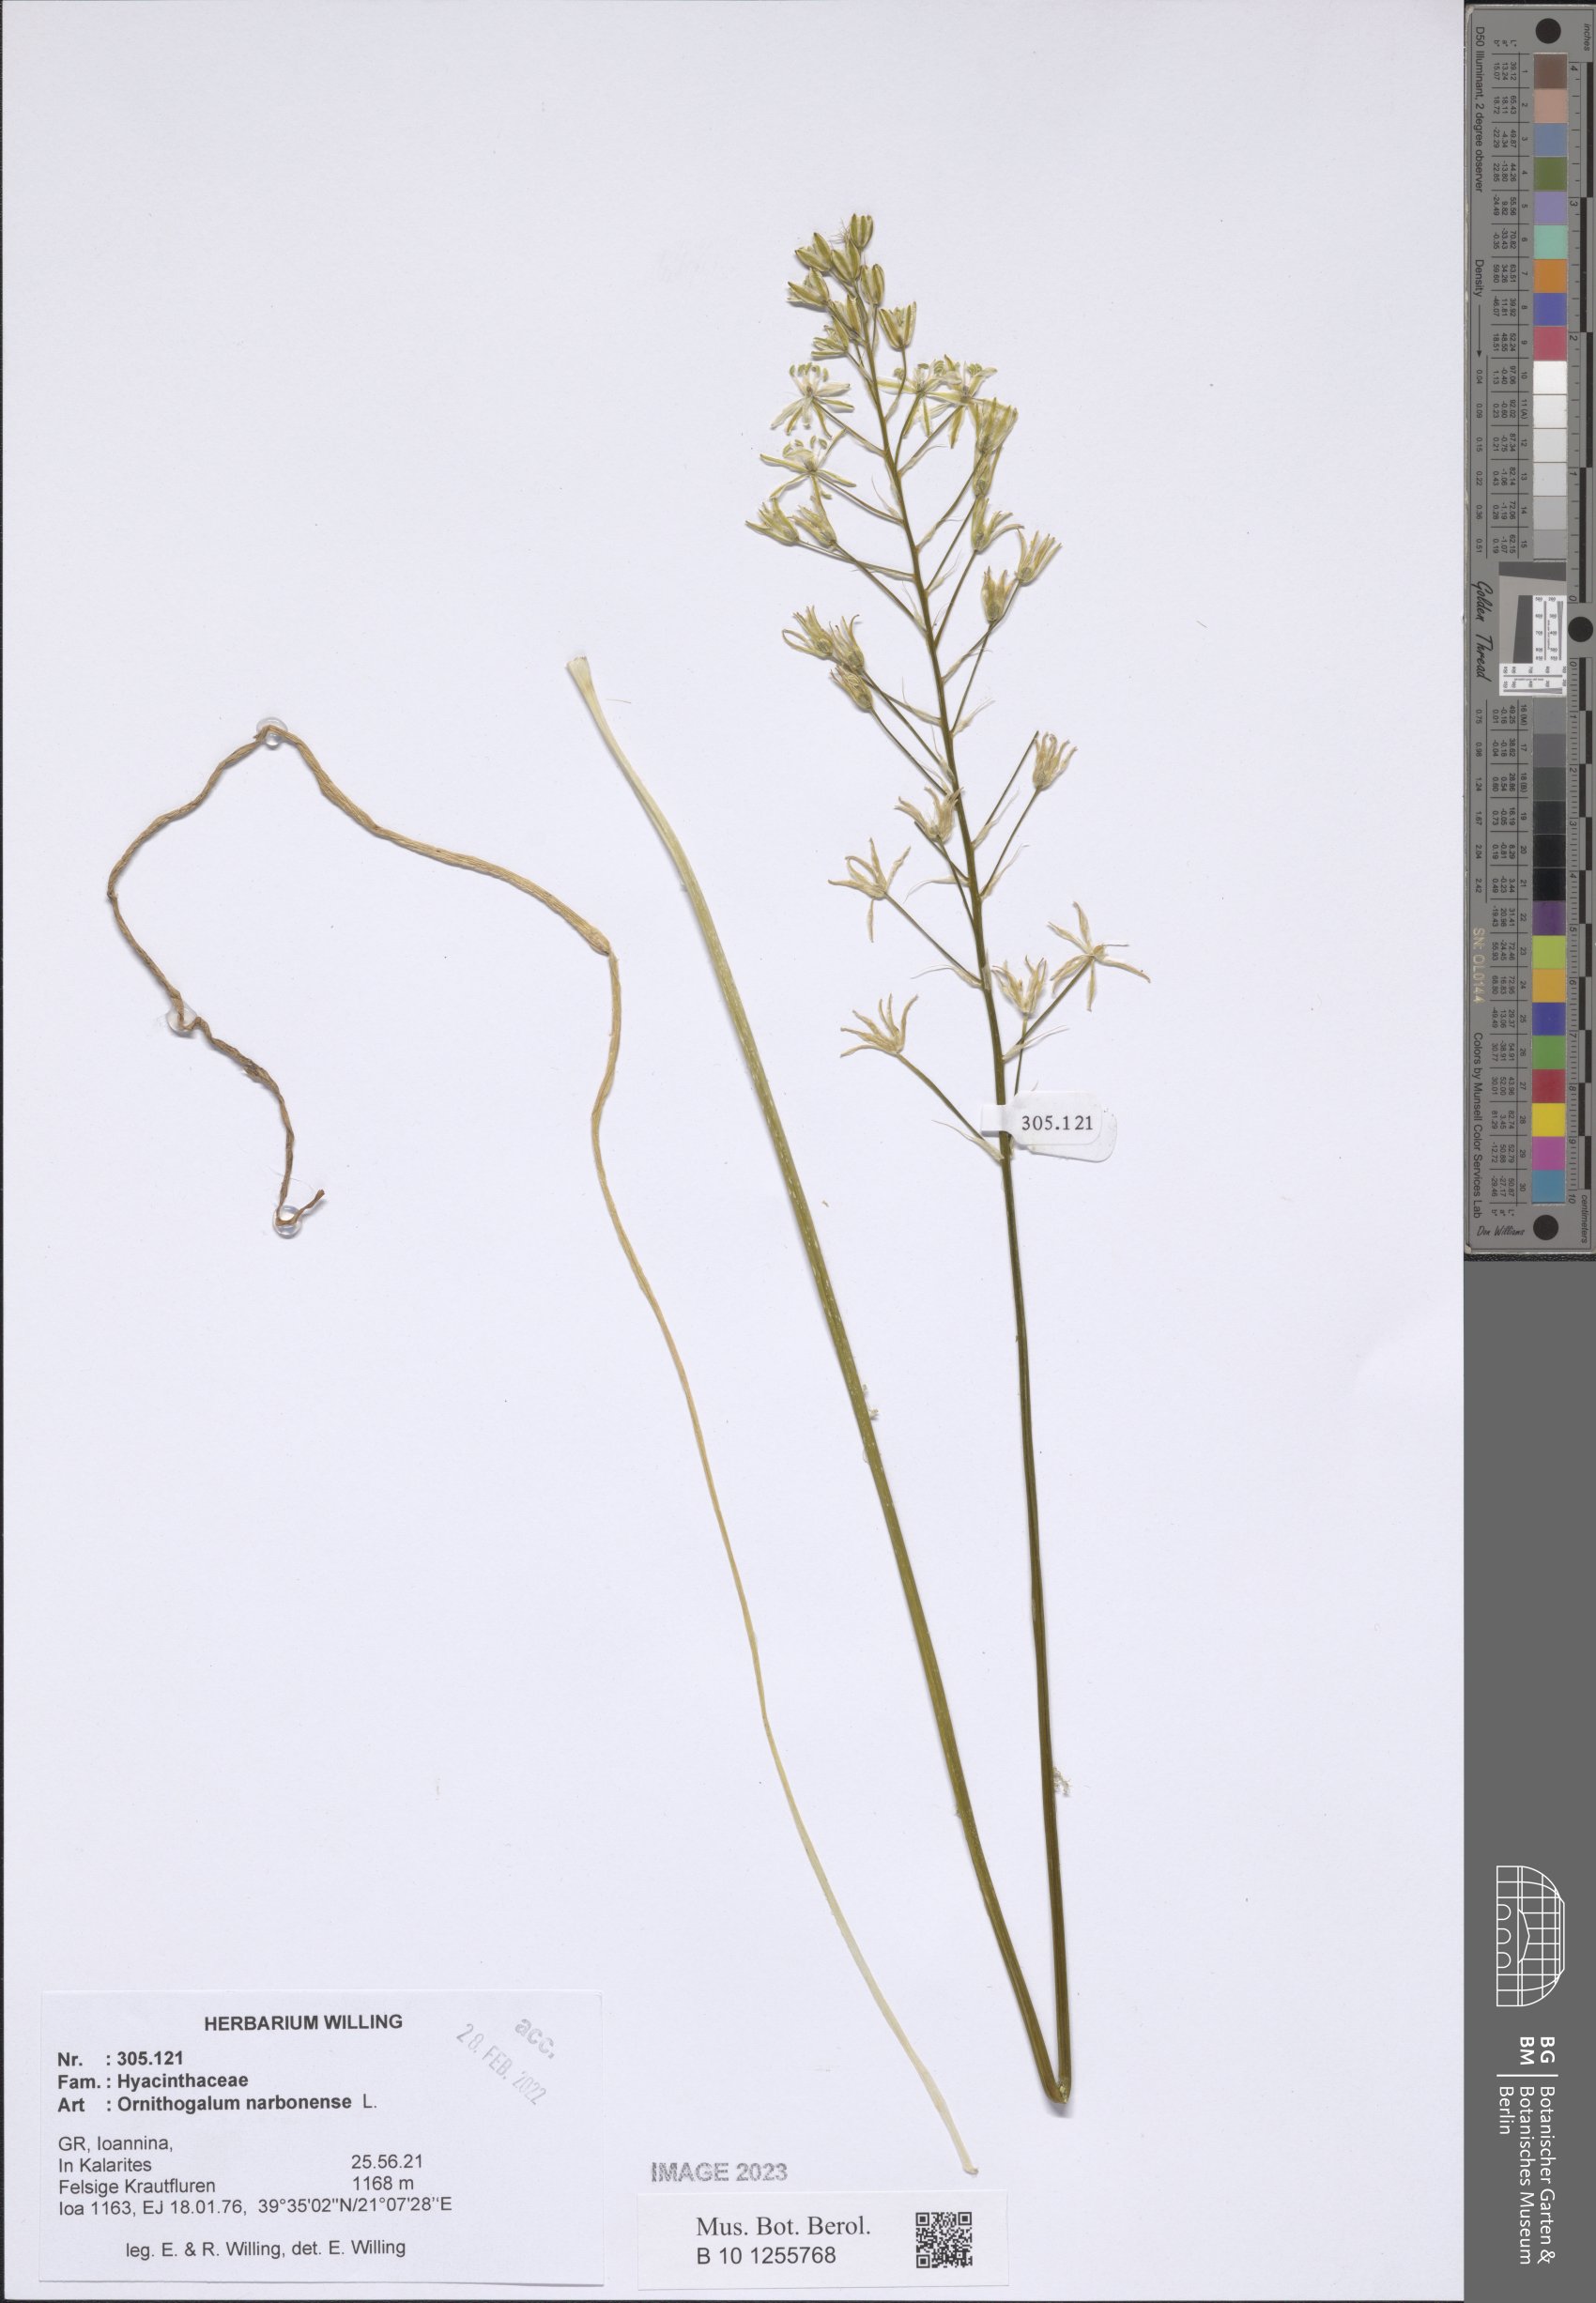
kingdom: Plantae
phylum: Tracheophyta
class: Liliopsida
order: Asparagales
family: Asparagaceae
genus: Ornithogalum
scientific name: Ornithogalum narbonense
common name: Bath-asparagus
